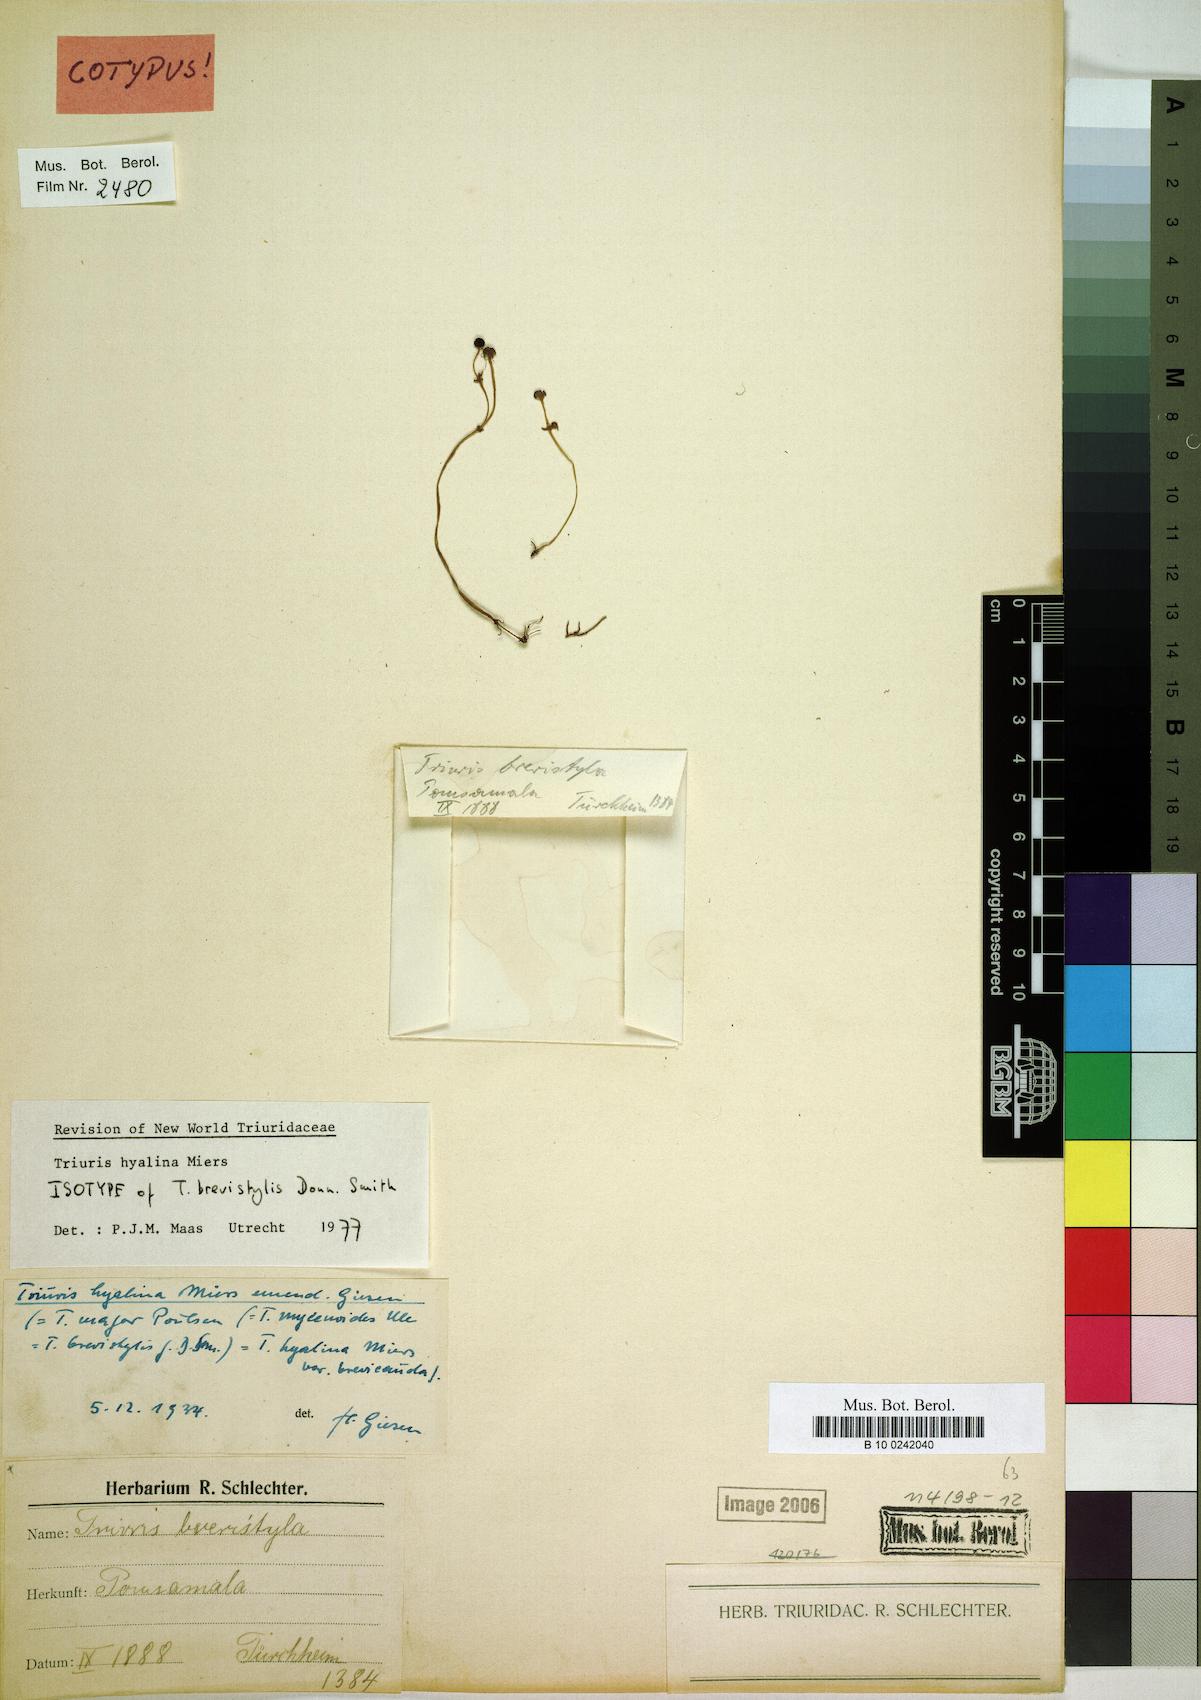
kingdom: Plantae
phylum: Tracheophyta
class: Liliopsida
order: Pandanales
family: Triuridaceae
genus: Triuris
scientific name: Triuris hyalina
